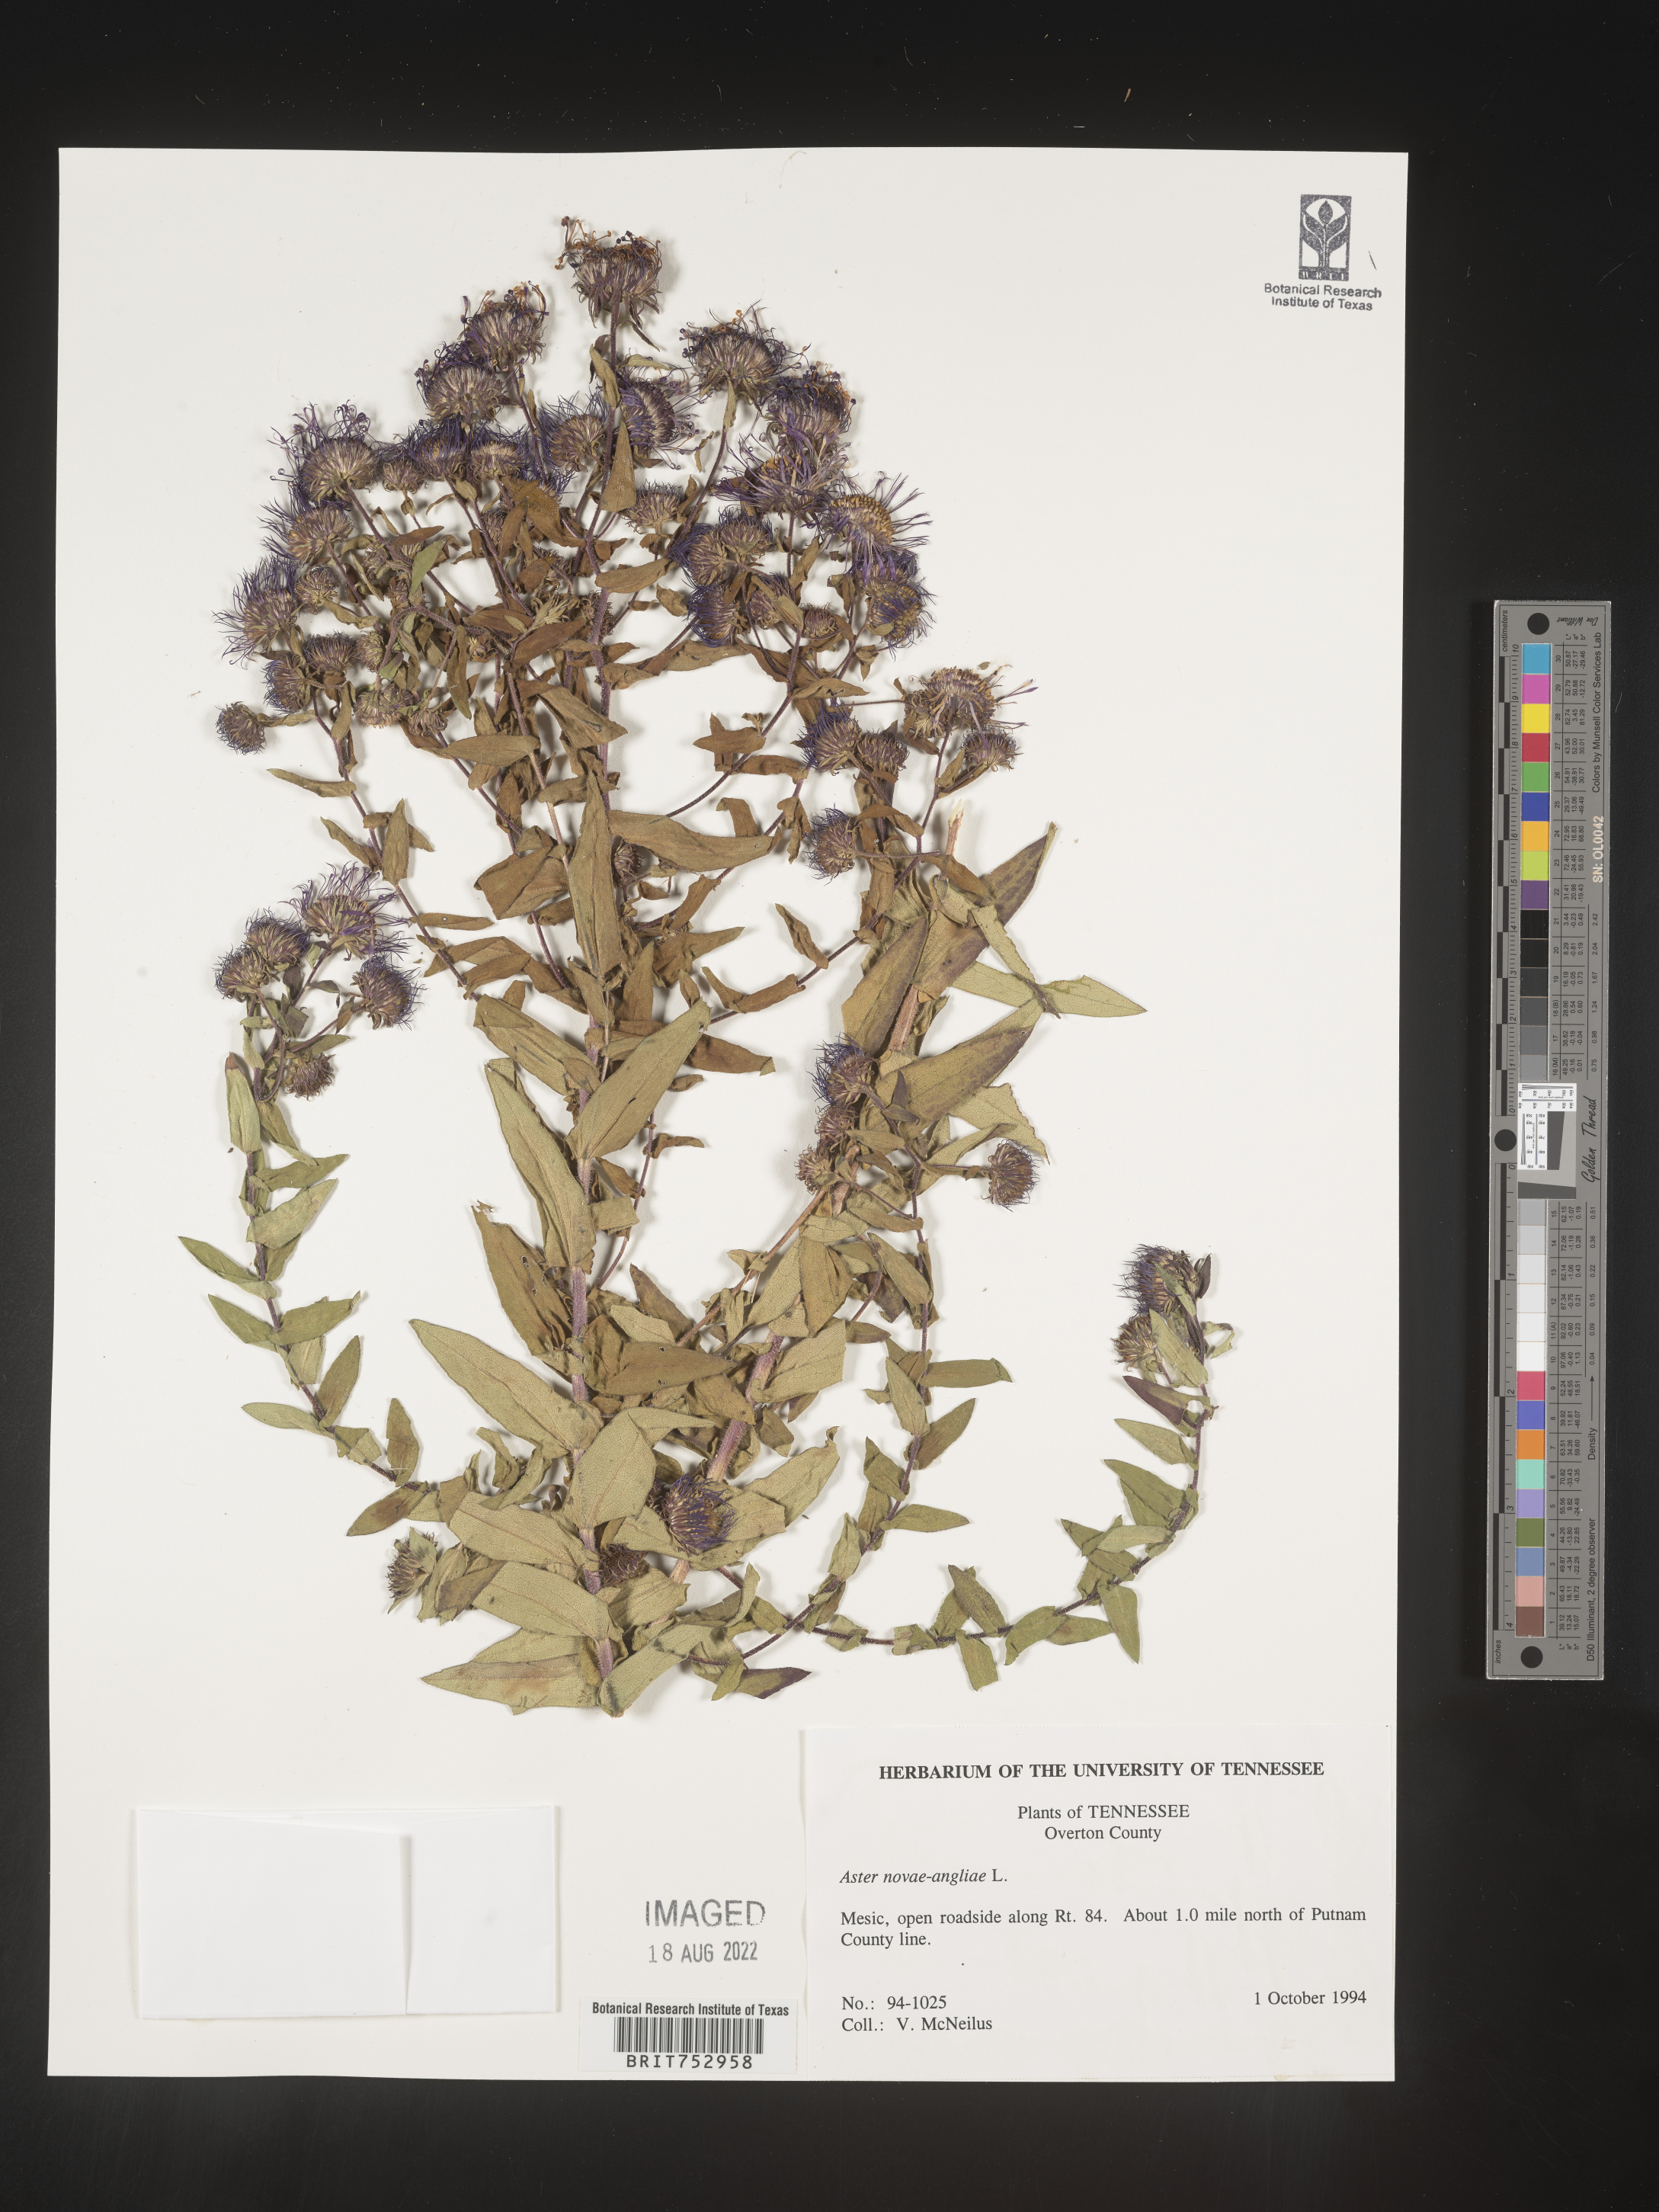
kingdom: Plantae
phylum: Tracheophyta
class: Magnoliopsida
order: Asterales
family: Asteraceae
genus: Symphyotrichum
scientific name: Symphyotrichum novae-angliae
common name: Michaelmas daisy
